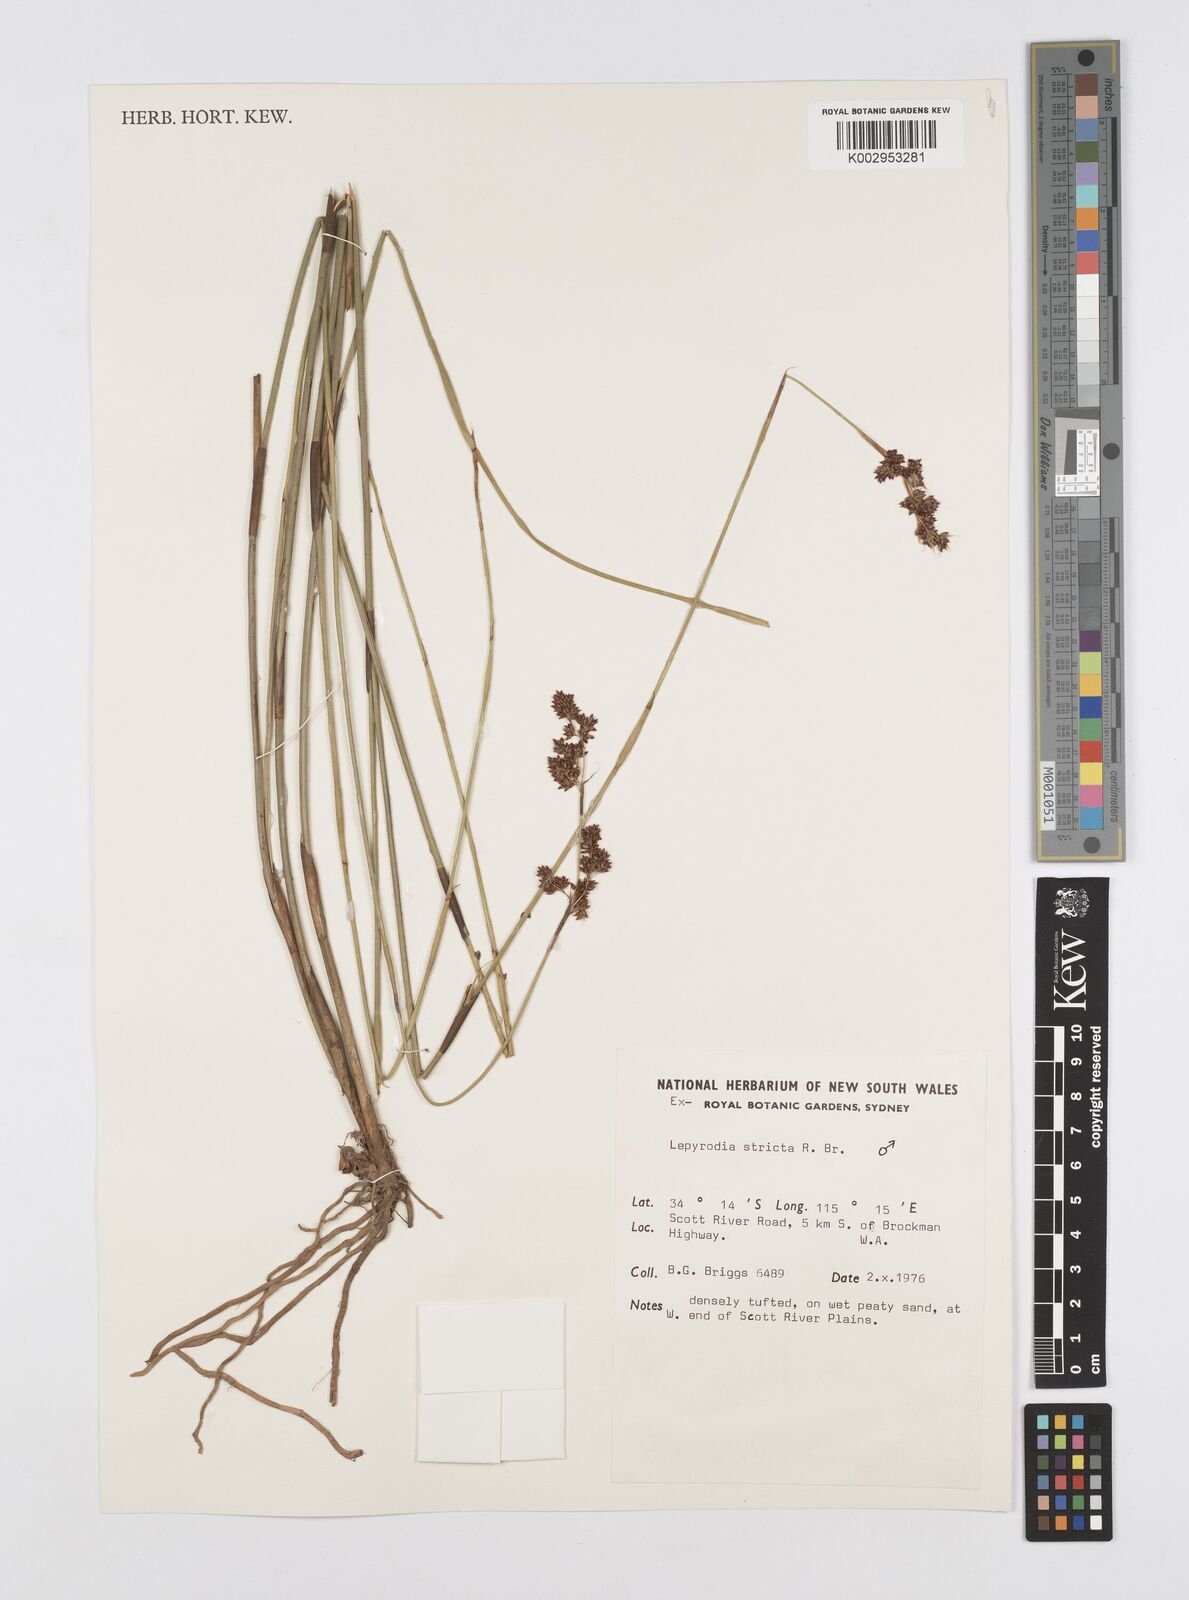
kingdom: Plantae
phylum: Tracheophyta
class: Liliopsida
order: Poales
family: Restionaceae
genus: Sporadanthus
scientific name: Sporadanthus strictus
